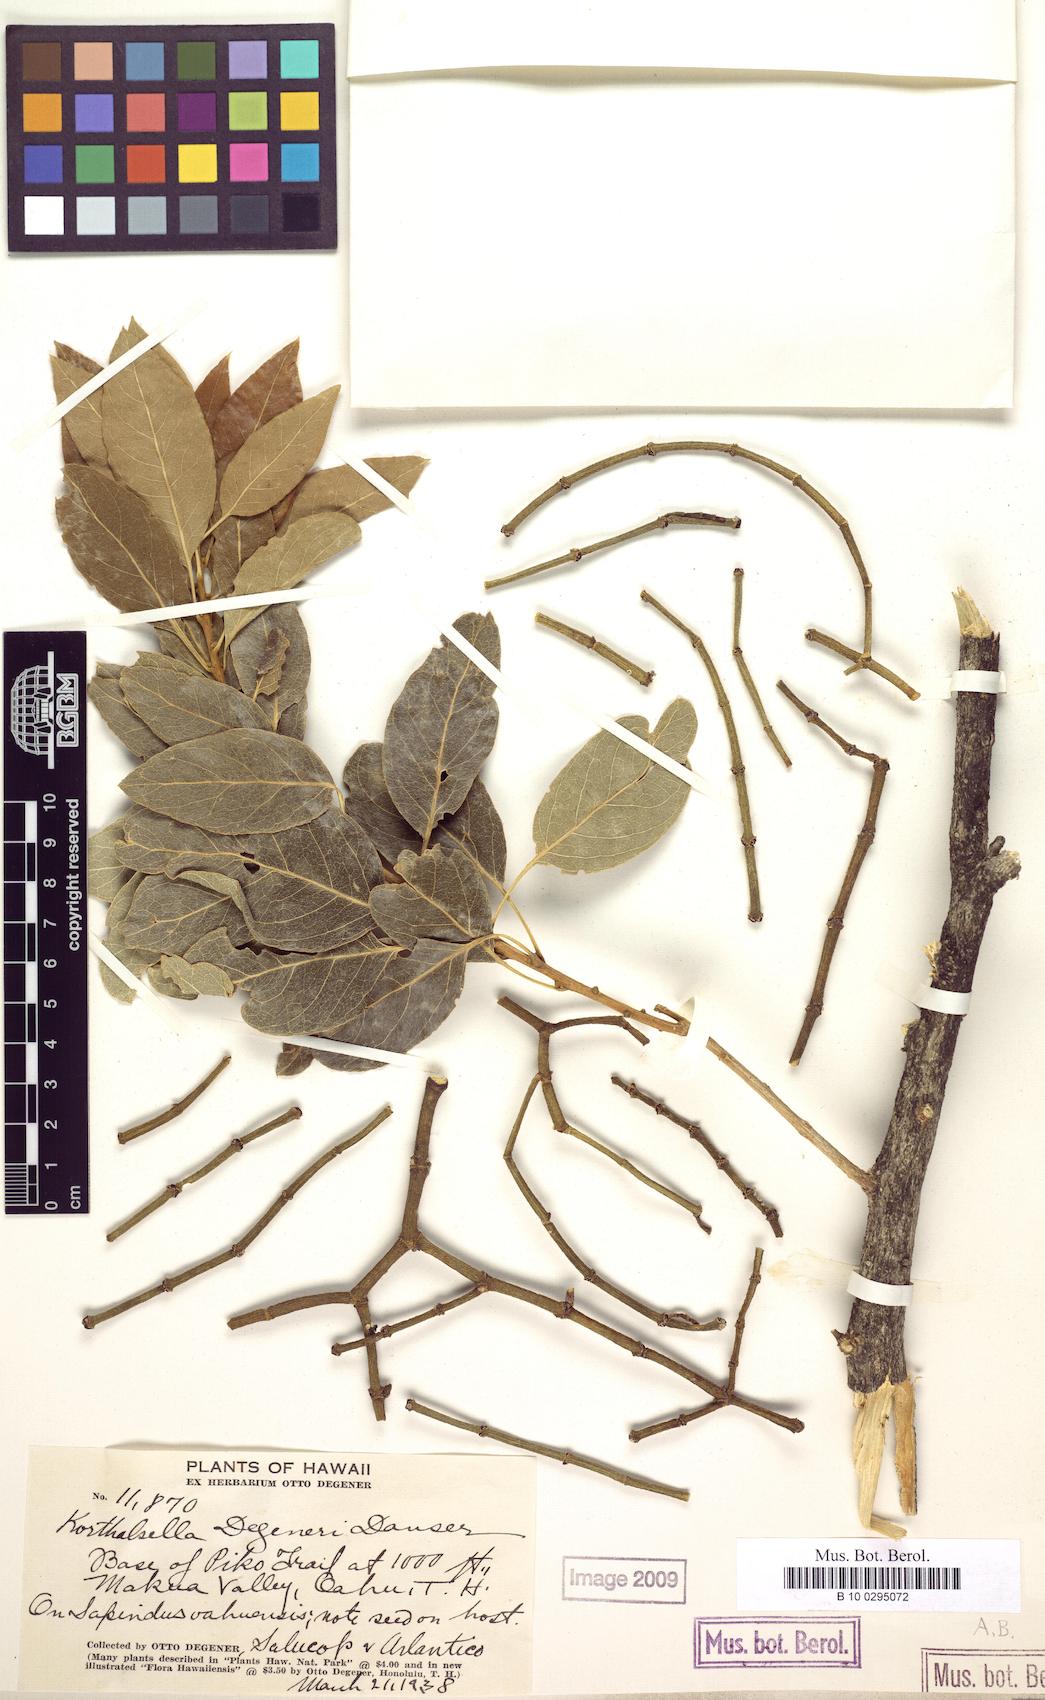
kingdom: Plantae
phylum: Tracheophyta
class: Magnoliopsida
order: Santalales
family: Viscaceae
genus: Korthalsella
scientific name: Korthalsella degeneri
